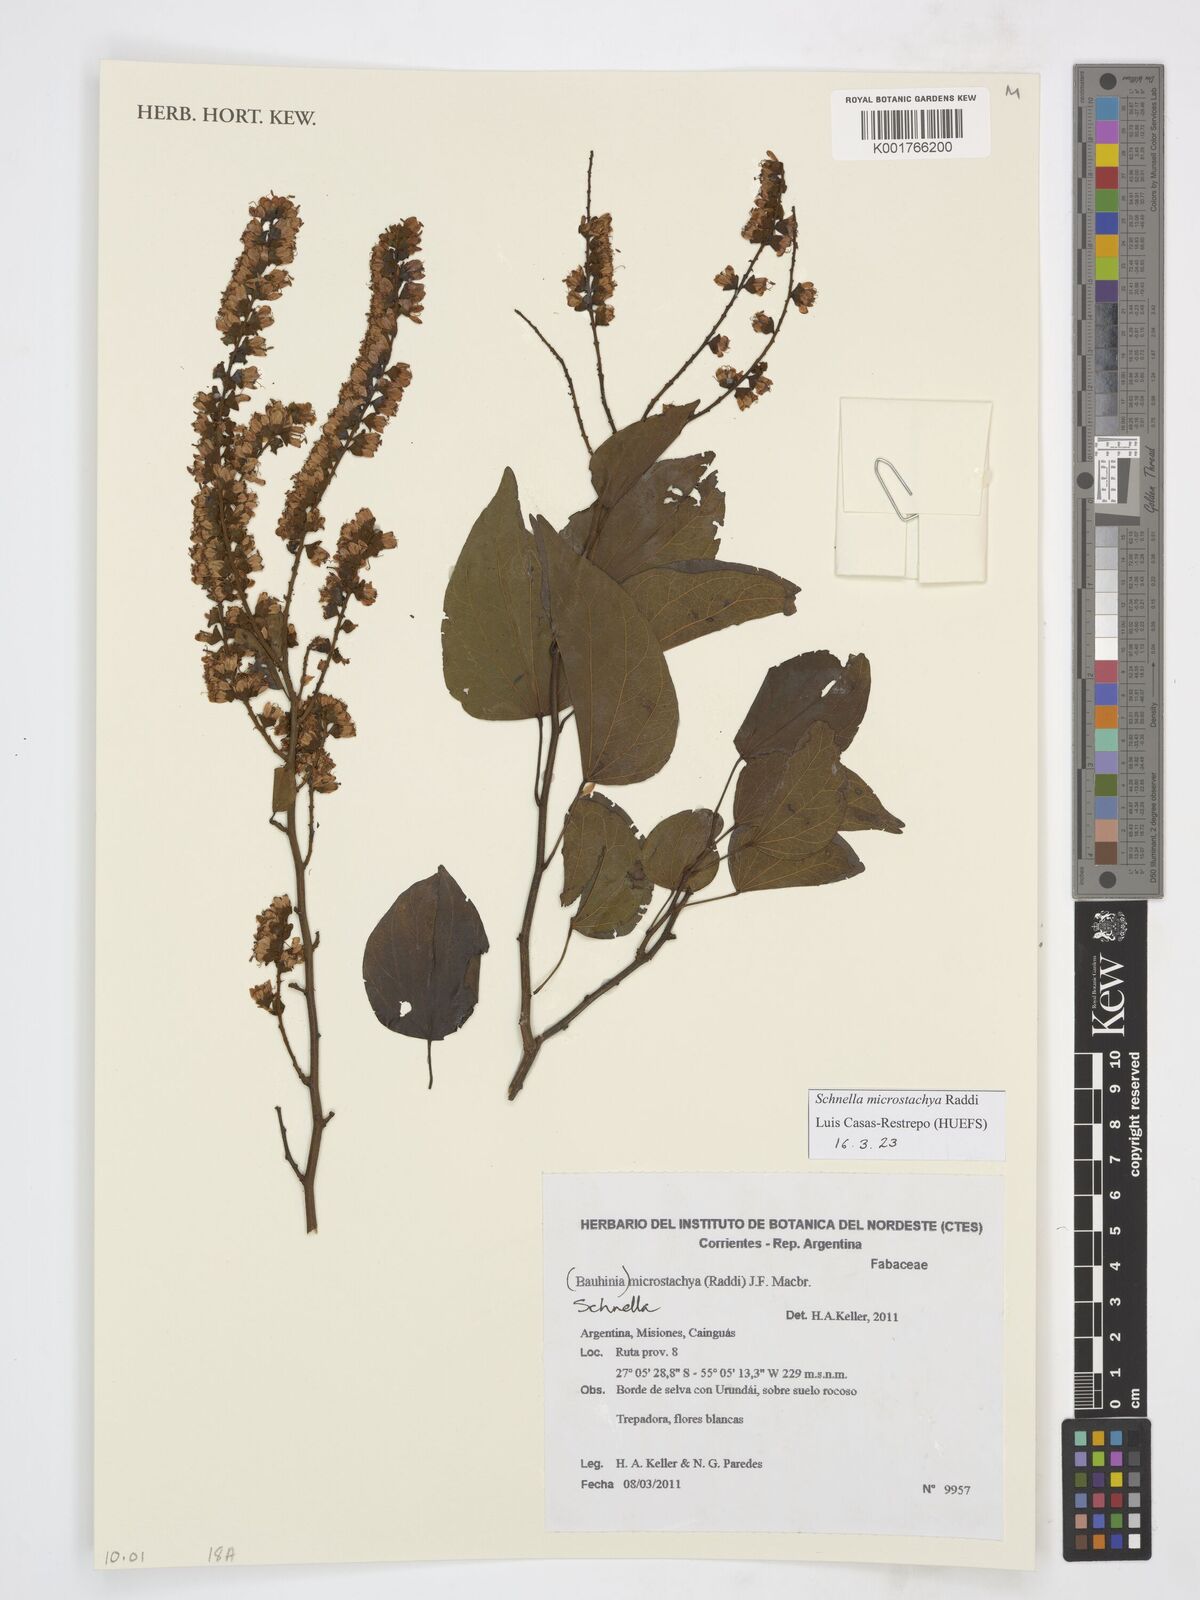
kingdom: Plantae
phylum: Tracheophyta
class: Magnoliopsida
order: Fabales
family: Fabaceae
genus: Schnella
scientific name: Schnella microstachya
